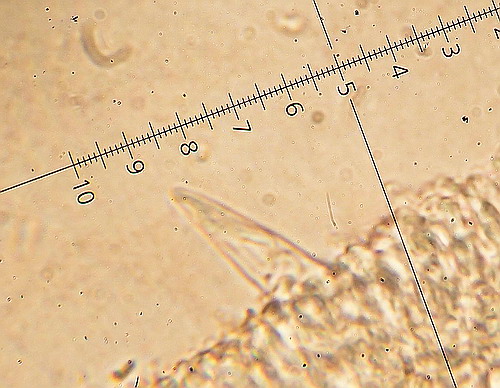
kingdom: Fungi
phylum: Basidiomycota
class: Agaricomycetes
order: Agaricales
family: Physalacriaceae
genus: Strobilurus
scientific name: Strobilurus tenacellus
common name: sommer-koglehat
